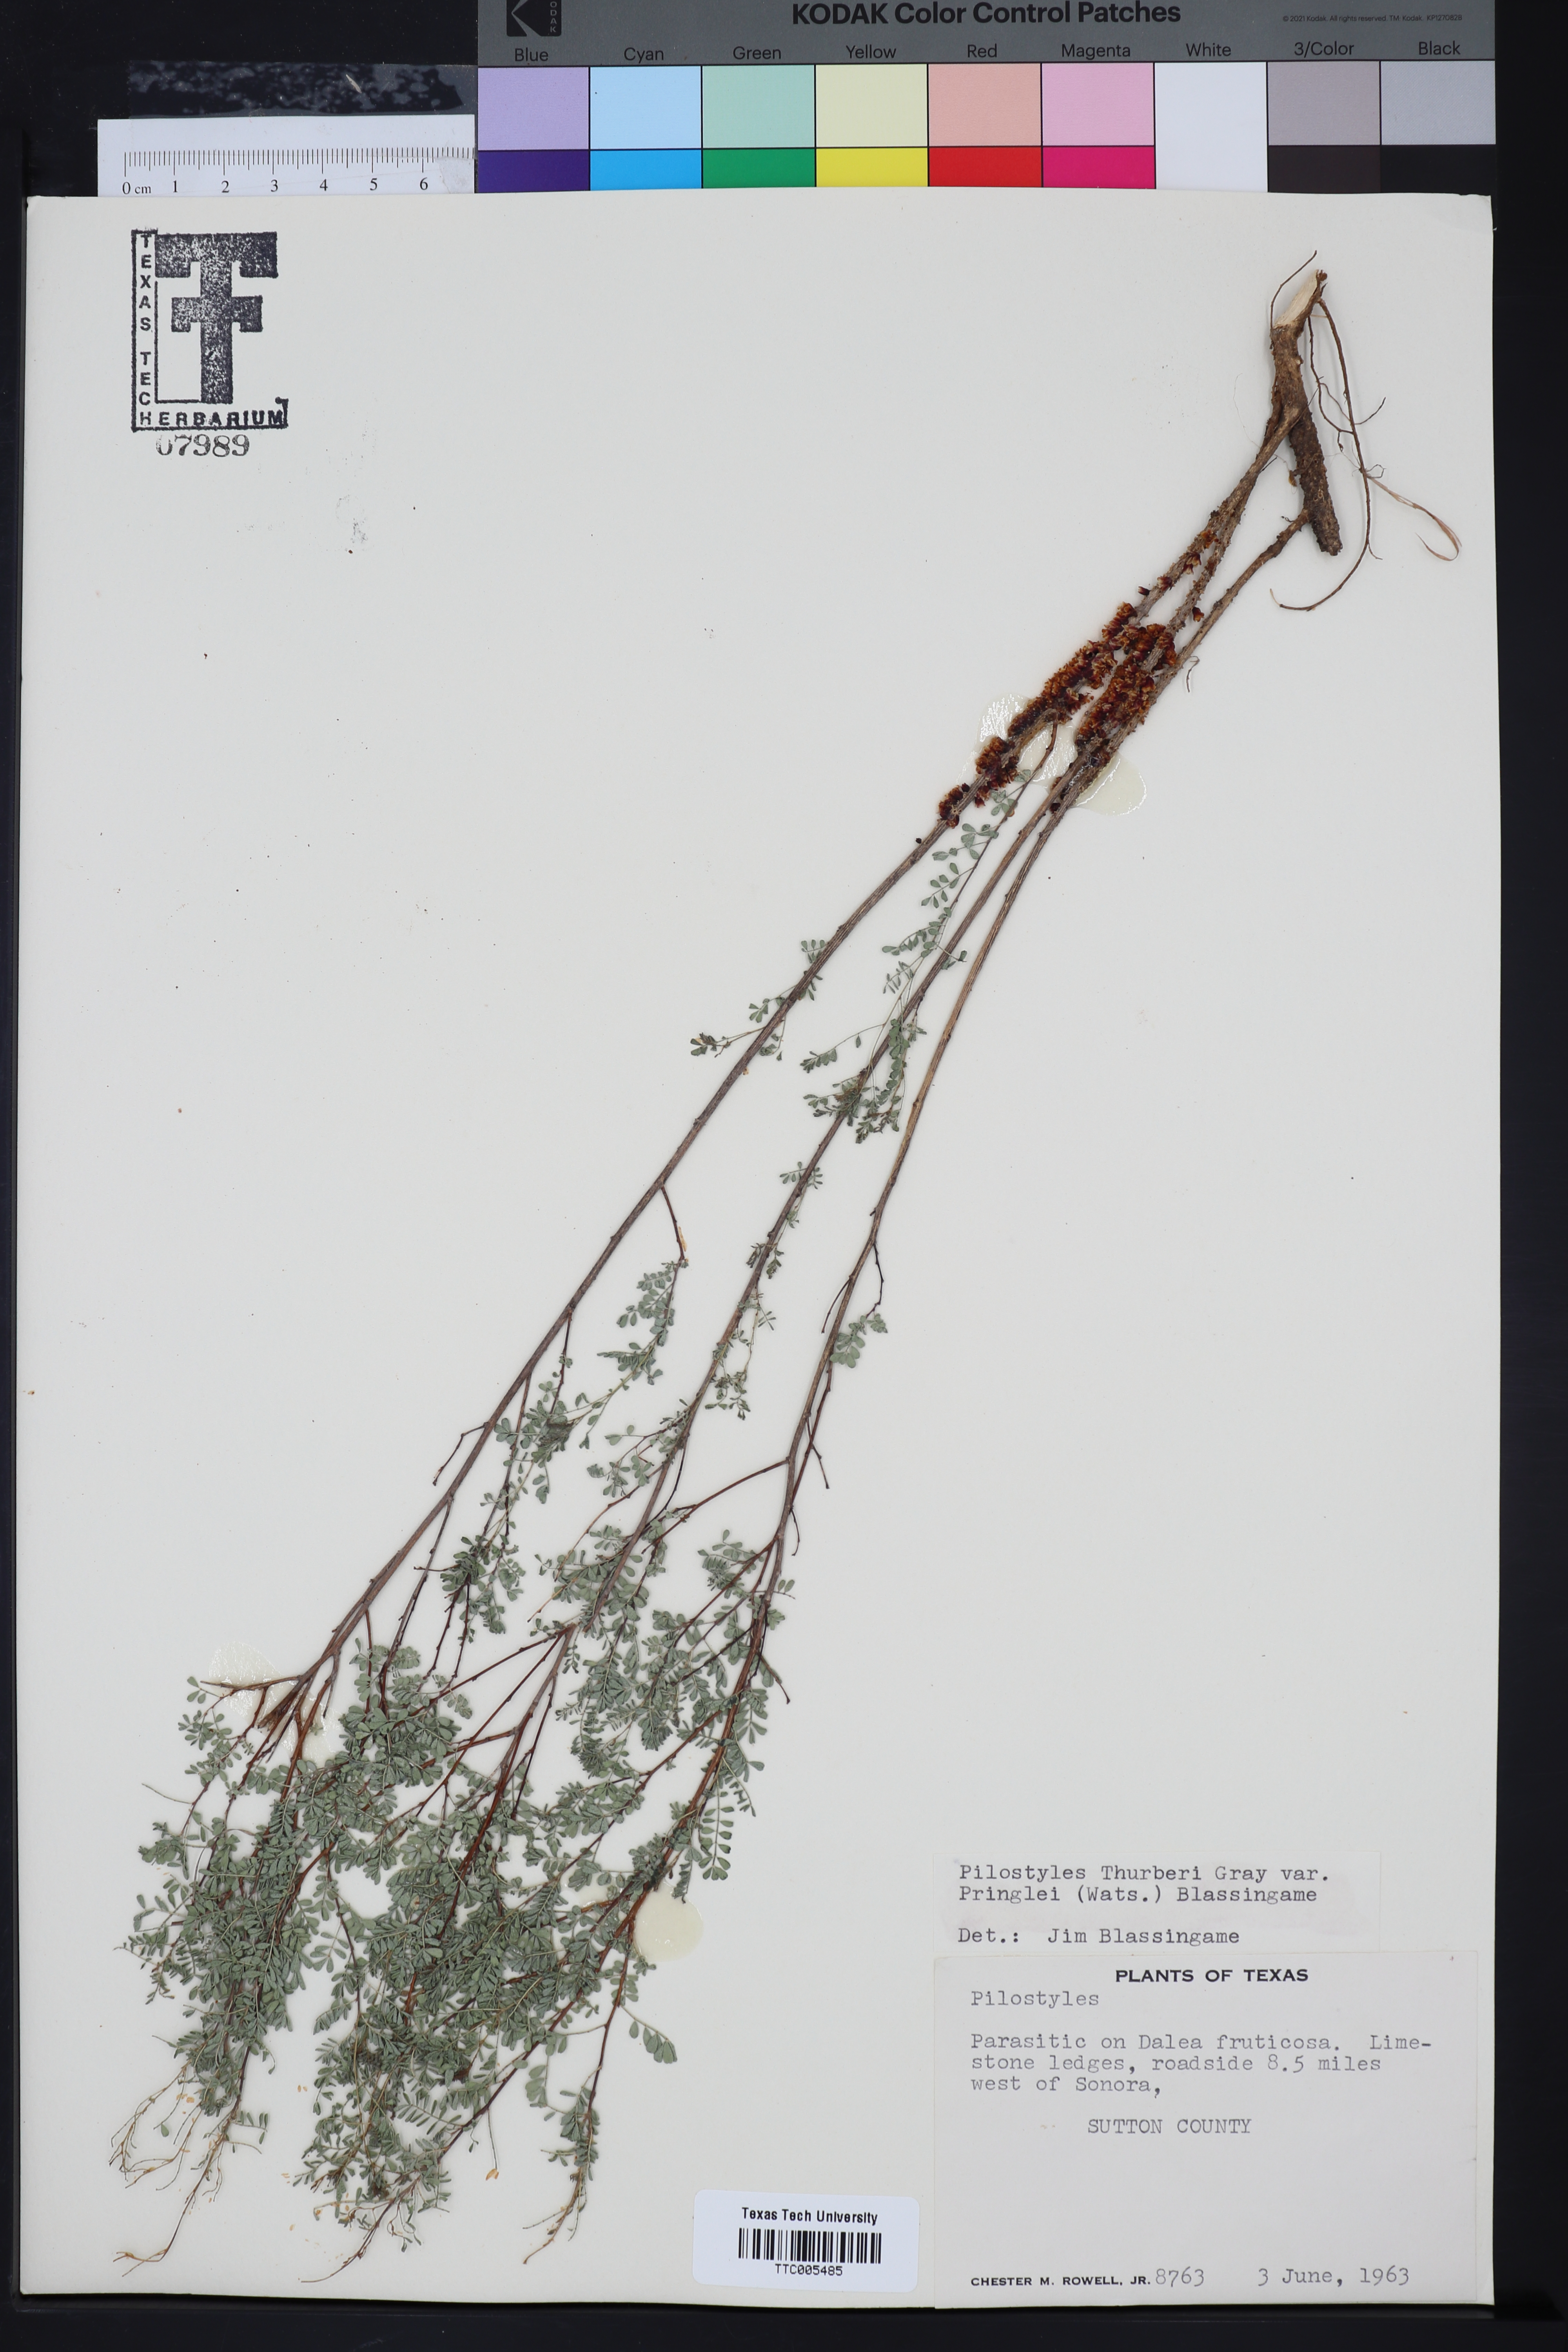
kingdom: Plantae
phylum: Tracheophyta
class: Magnoliopsida
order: Cucurbitales
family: Apodanthaceae
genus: Pilostyles
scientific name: Pilostyles
